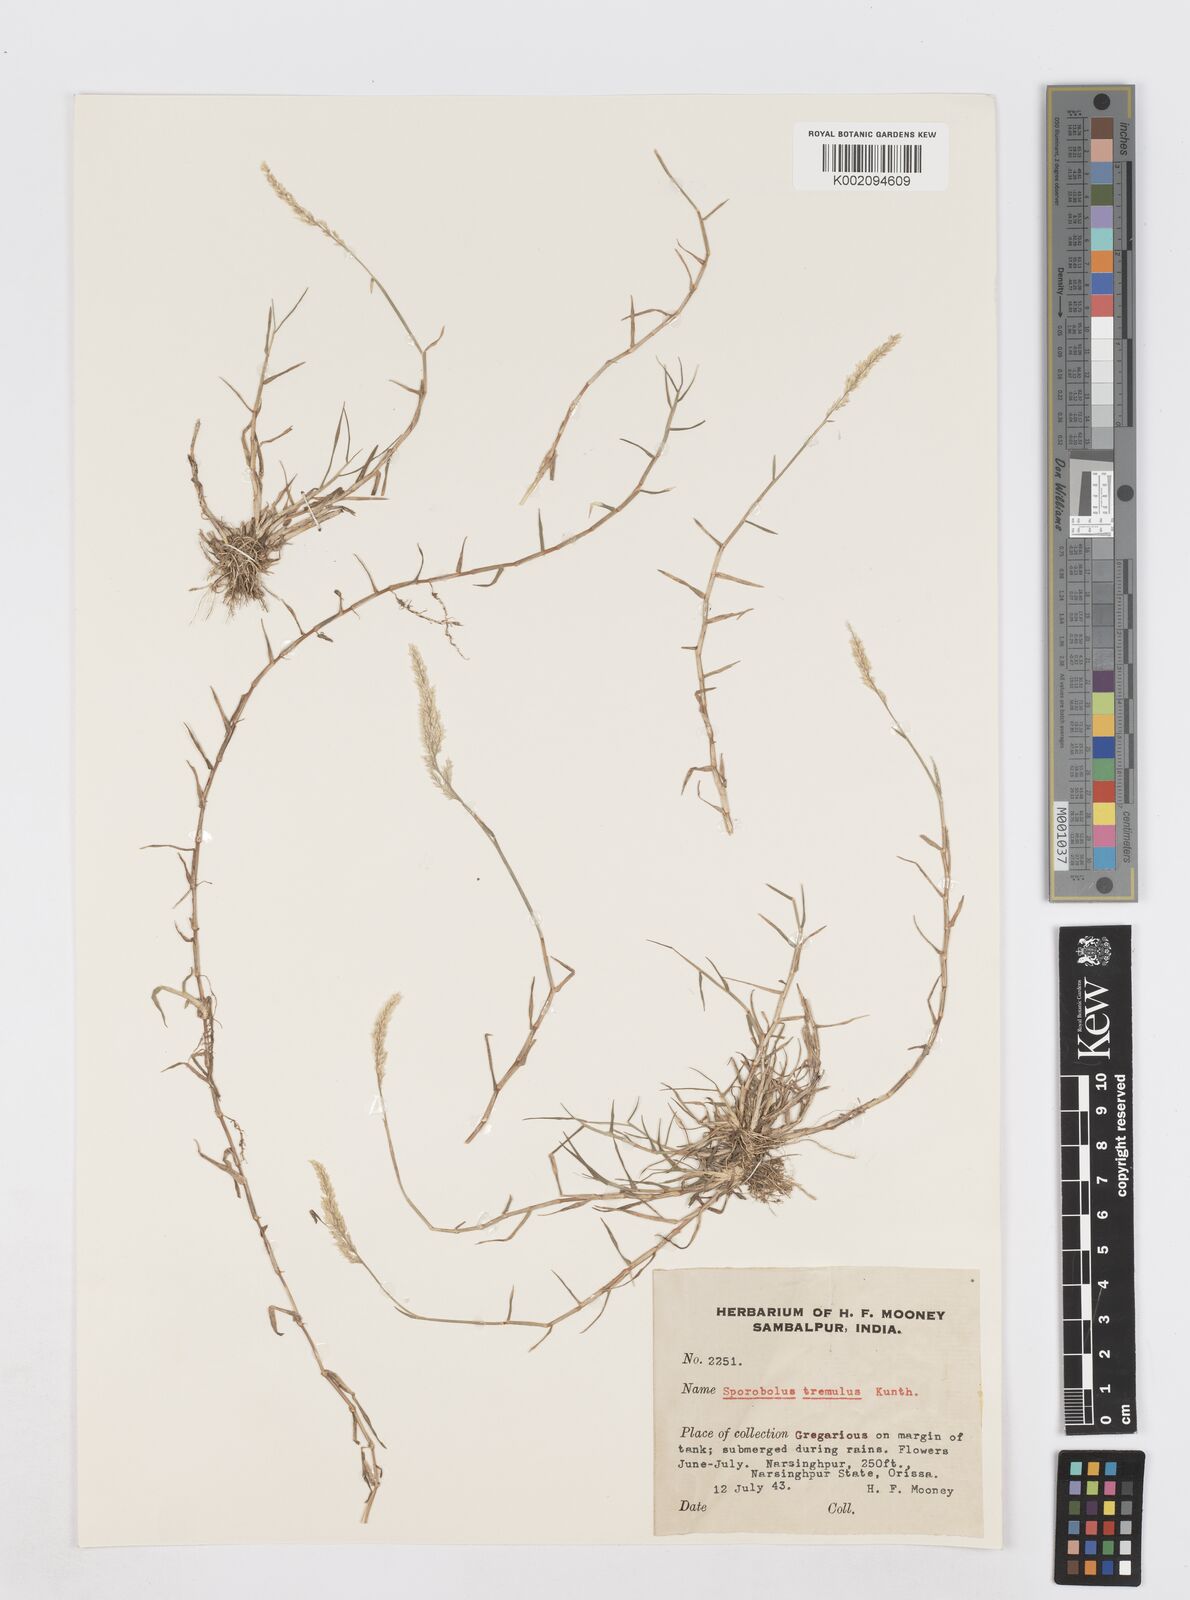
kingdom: Plantae
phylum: Tracheophyta
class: Liliopsida
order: Poales
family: Poaceae
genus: Sporobolus
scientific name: Sporobolus virginicus
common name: Beach dropseed
